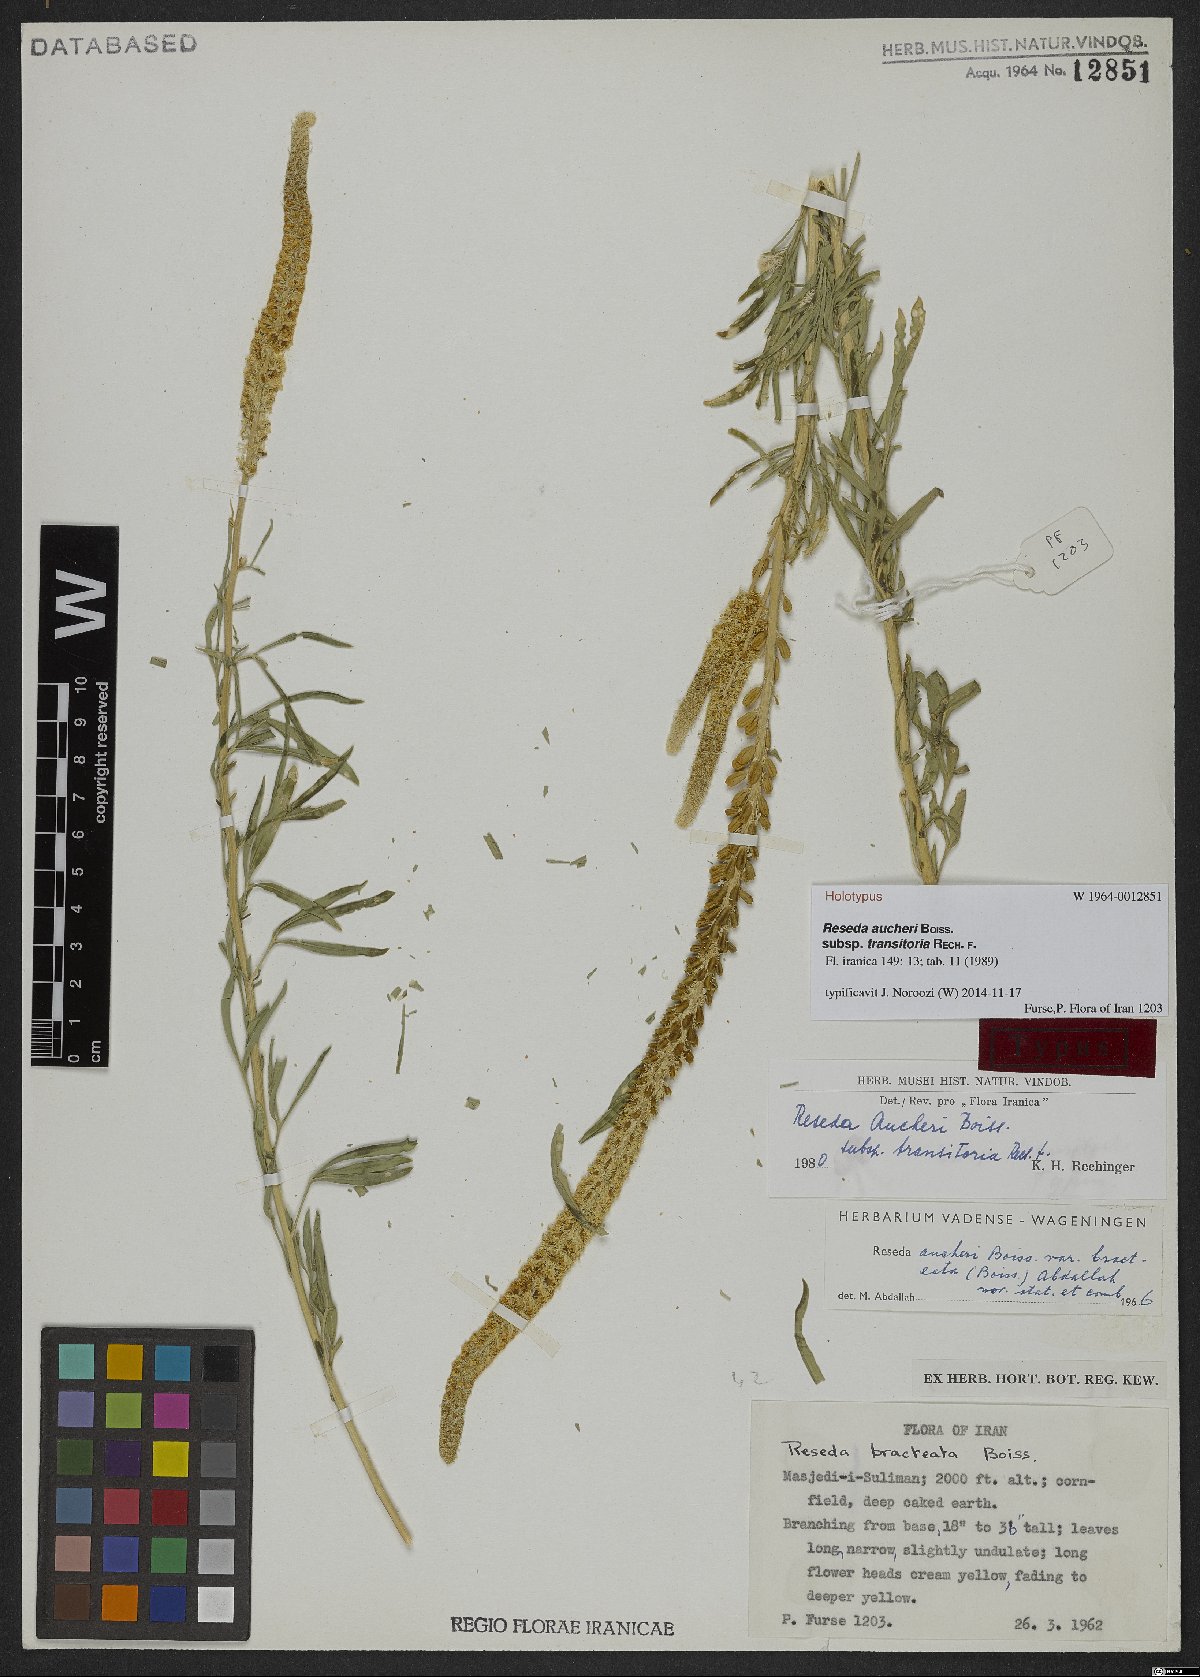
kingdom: Plantae
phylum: Tracheophyta
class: Magnoliopsida
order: Brassicales
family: Resedaceae
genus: Reseda
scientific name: Reseda aucheri
